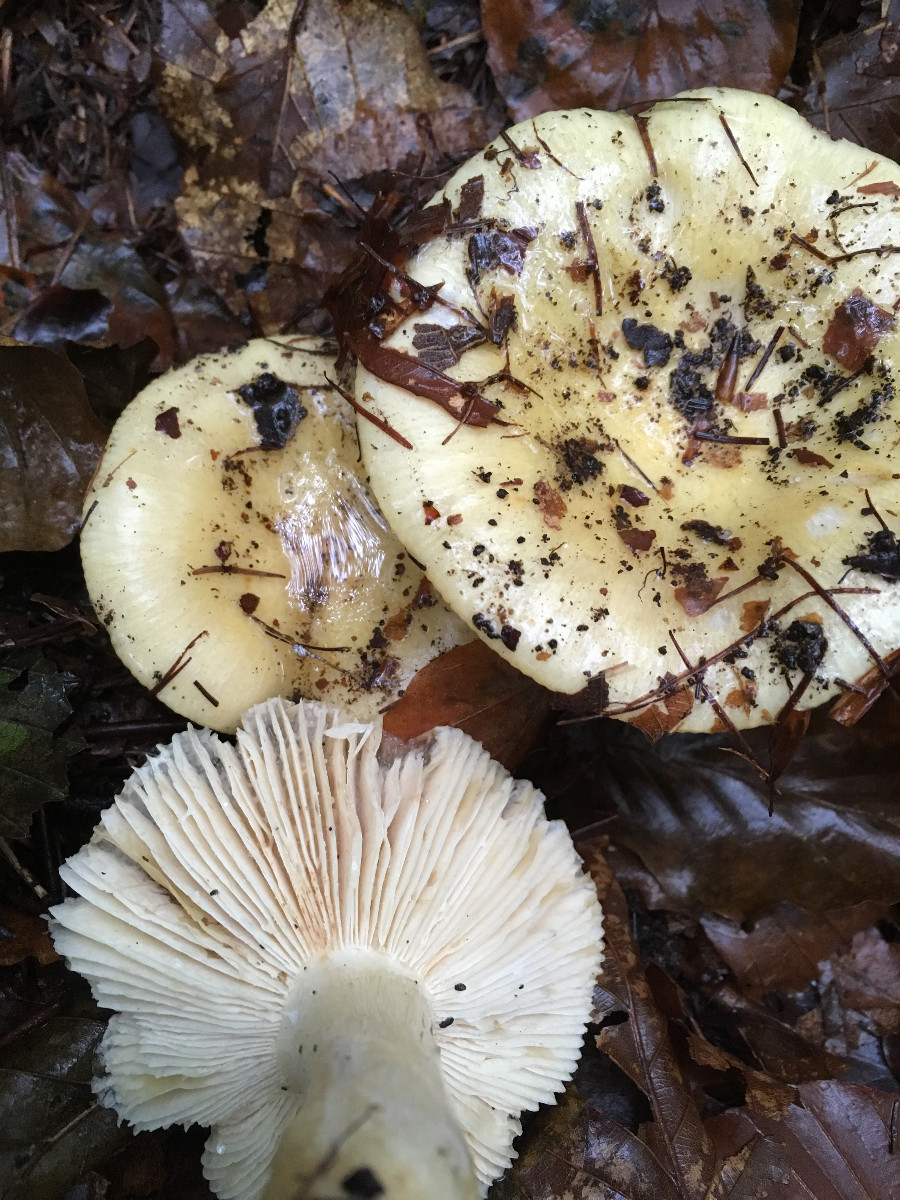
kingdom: Fungi
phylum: Basidiomycota
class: Agaricomycetes
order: Russulales
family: Russulaceae
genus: Russula
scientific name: Russula ochroleuca
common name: okkergul skørhat
